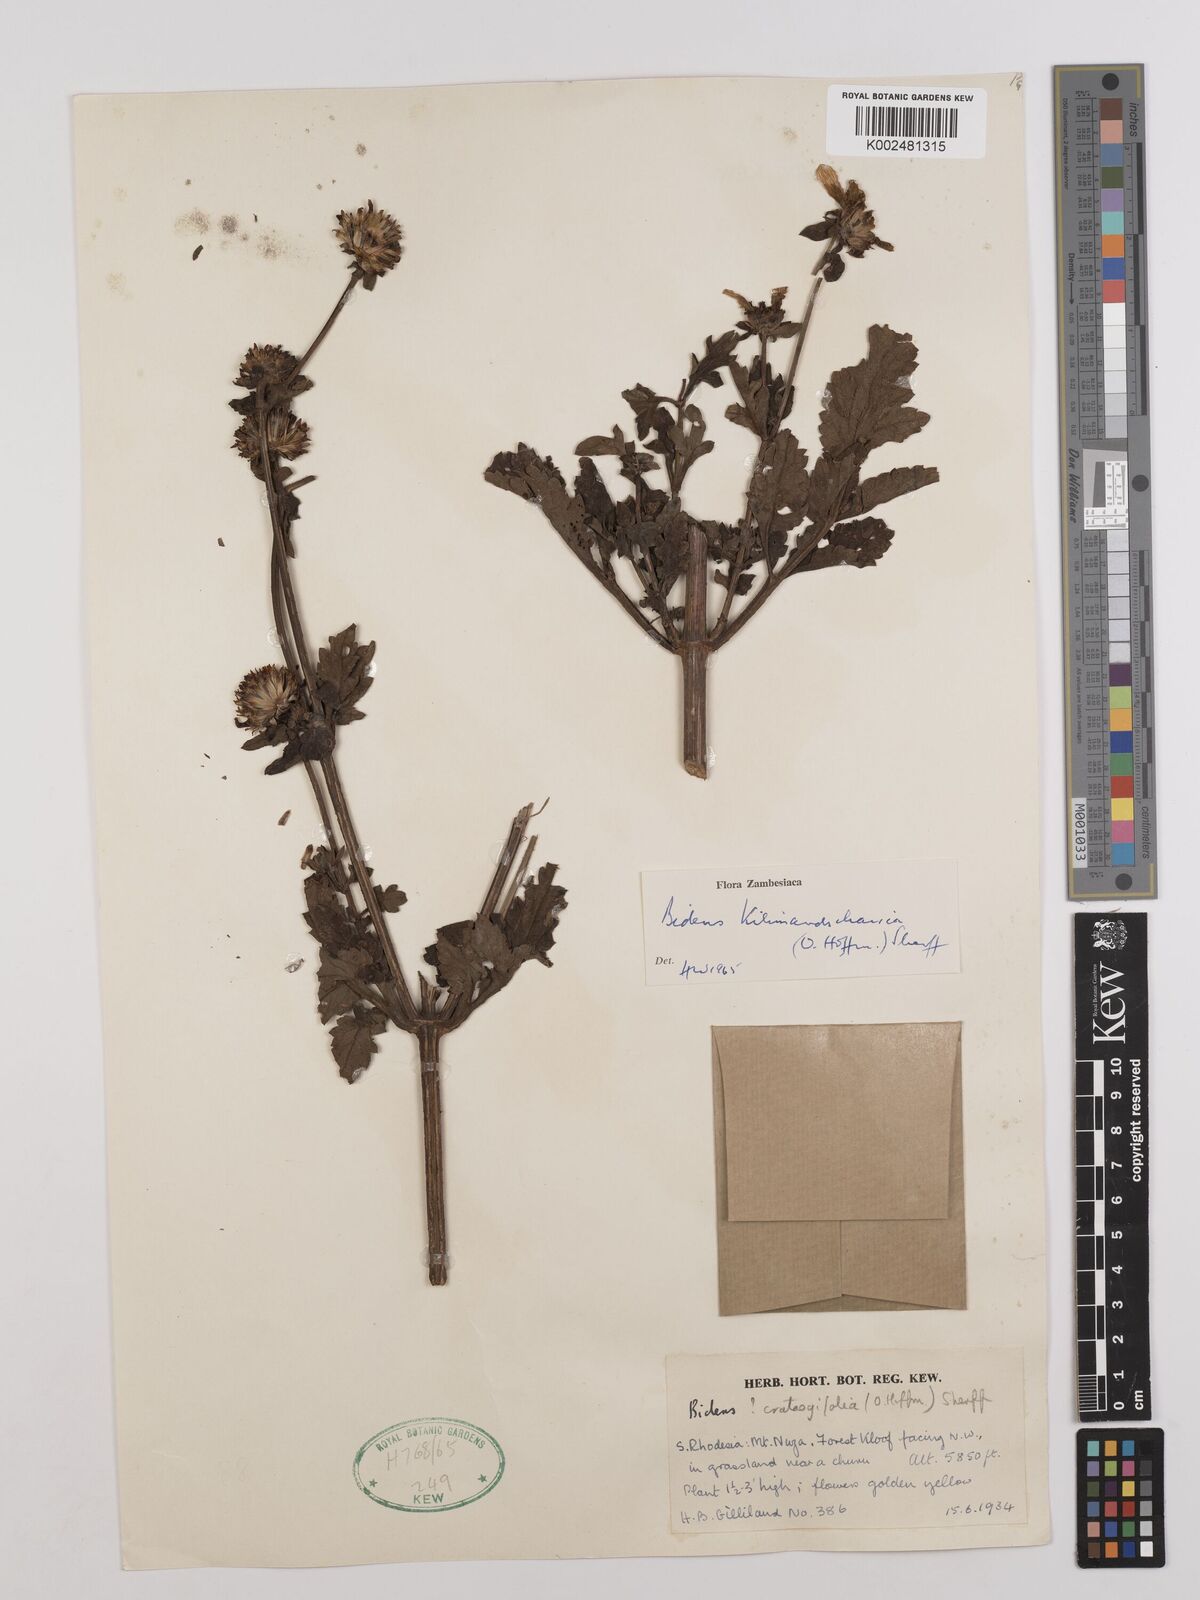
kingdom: Plantae
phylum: Tracheophyta
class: Magnoliopsida
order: Asterales
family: Asteraceae
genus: Bidens
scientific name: Bidens kilimandscharica
